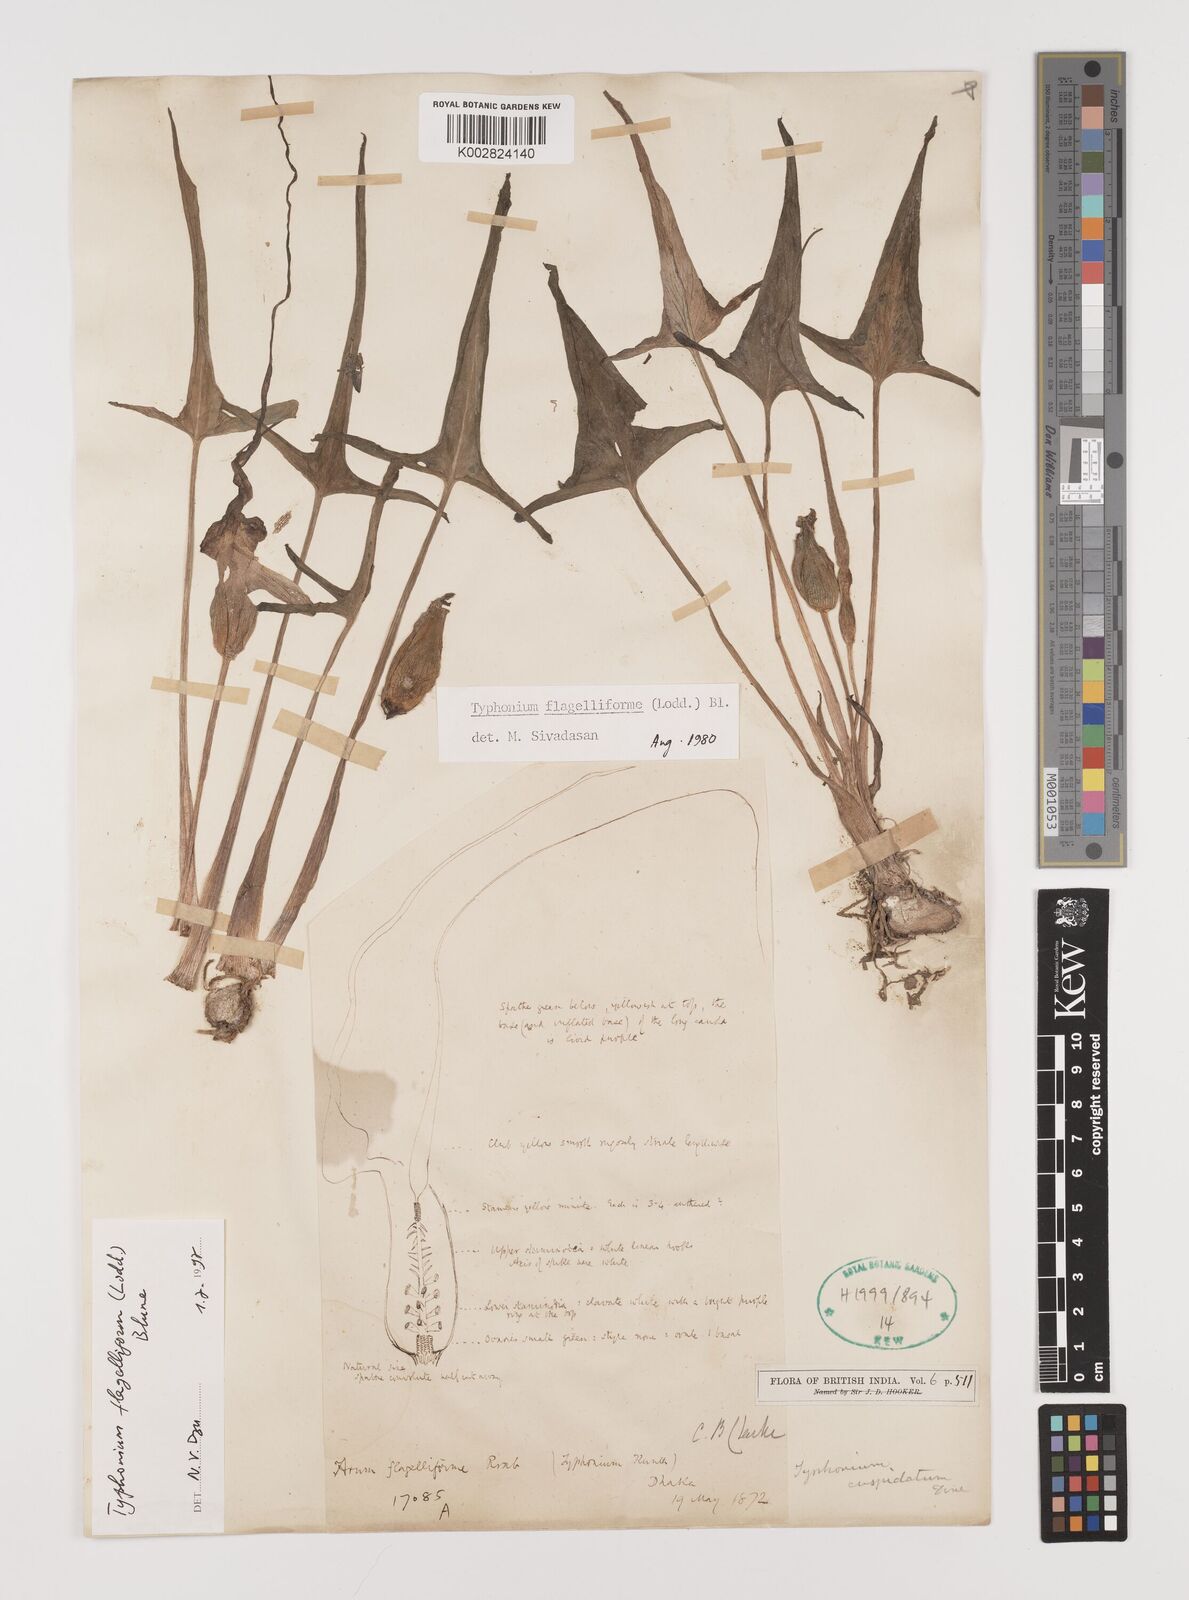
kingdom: Plantae
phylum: Tracheophyta
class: Liliopsida
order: Alismatales
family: Araceae
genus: Typhonium
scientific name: Typhonium flagelliforme
